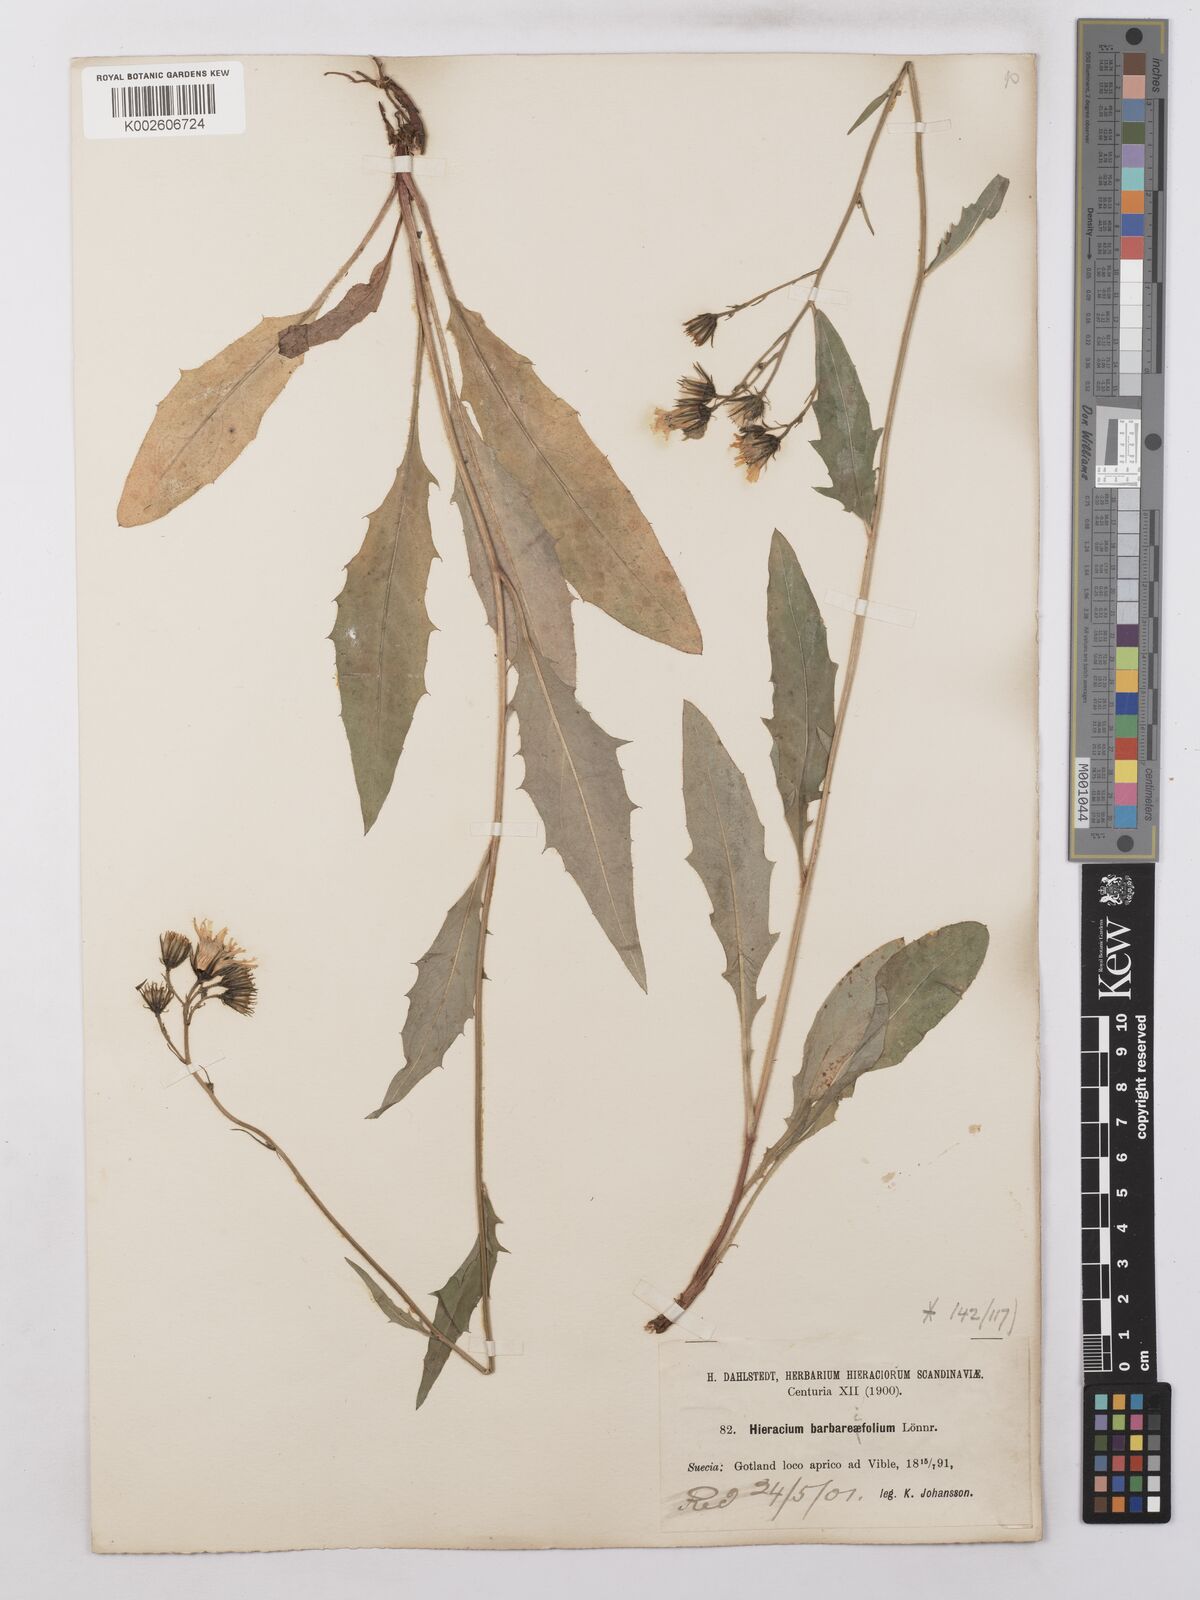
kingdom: Plantae
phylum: Tracheophyta
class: Magnoliopsida
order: Asterales
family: Asteraceae
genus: Hieracium
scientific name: Hieracium lachenalii
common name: Common hawkweed
